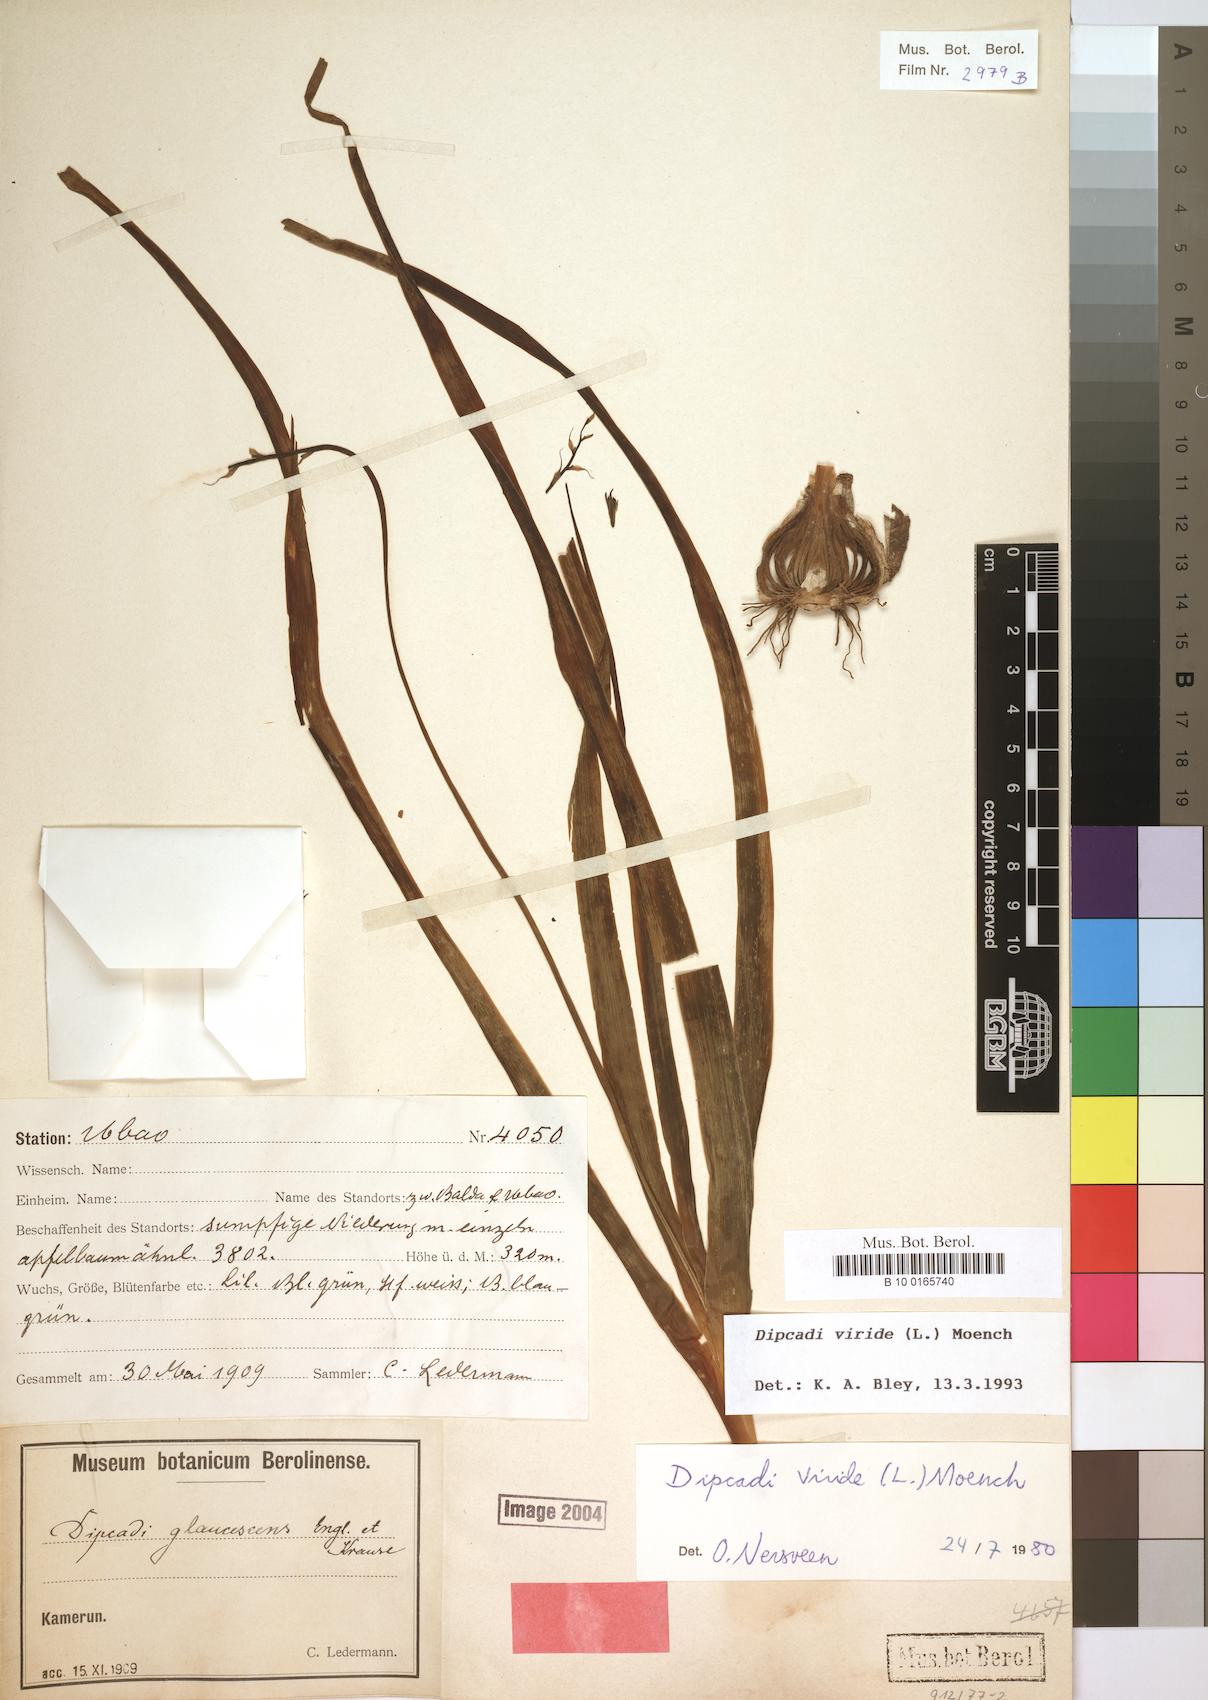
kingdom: Plantae
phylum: Tracheophyta
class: Liliopsida
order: Asparagales
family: Asparagaceae
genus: Dipcadi
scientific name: Dipcadi viride
